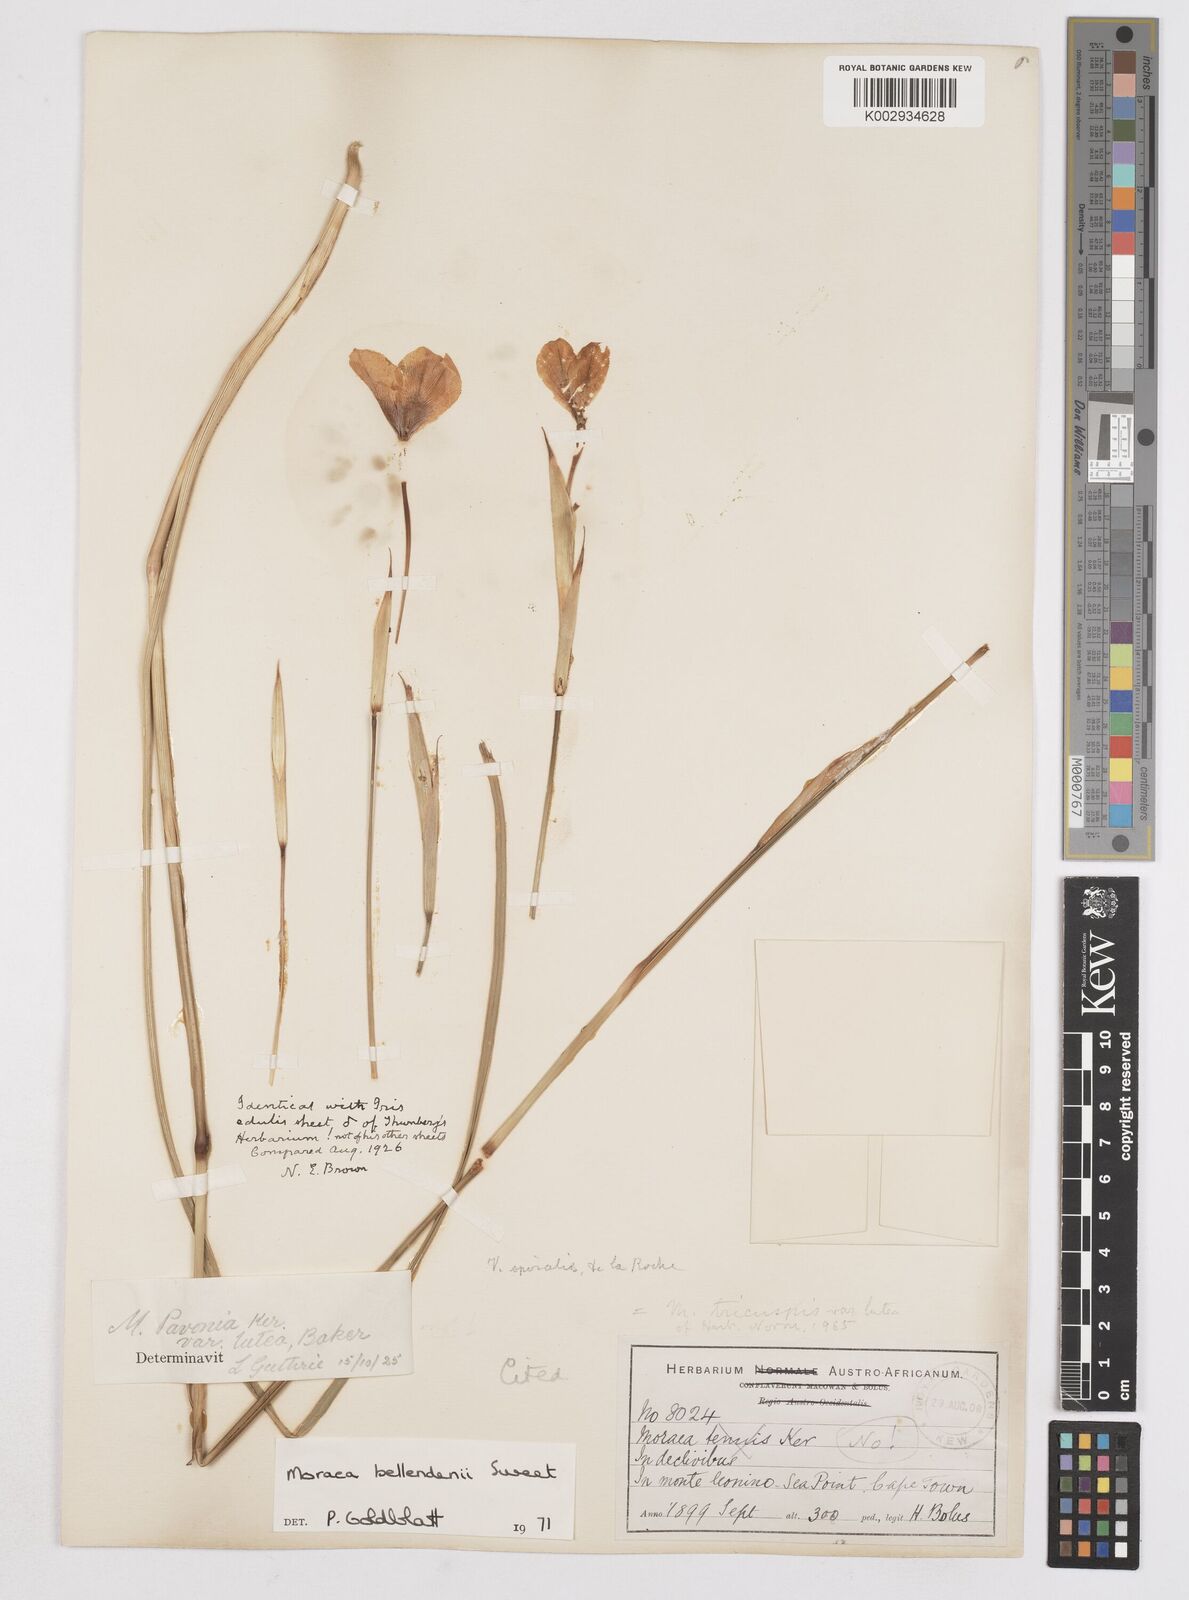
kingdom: Plantae
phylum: Tracheophyta
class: Liliopsida
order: Asparagales
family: Iridaceae
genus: Moraea
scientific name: Moraea bellendenii
